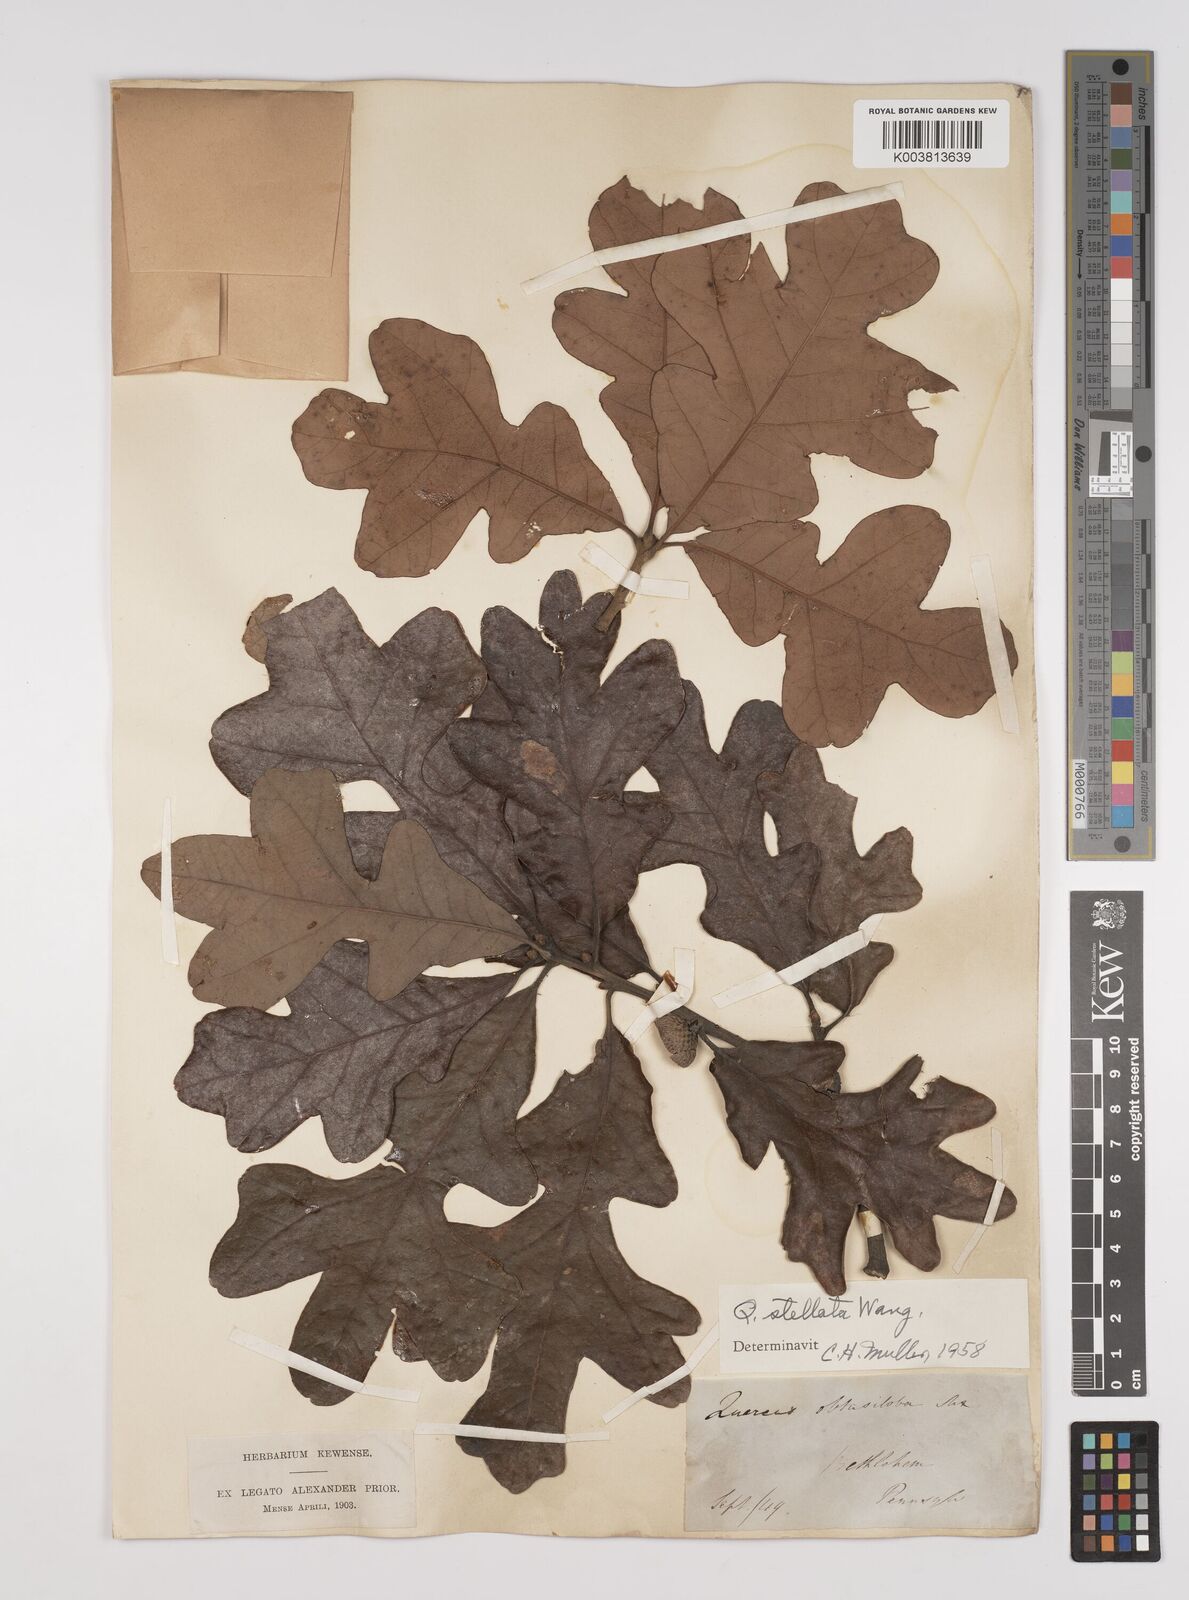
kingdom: Plantae
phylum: Tracheophyta
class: Magnoliopsida
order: Fagales
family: Fagaceae
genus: Quercus
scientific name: Quercus stellata
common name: Post oak
